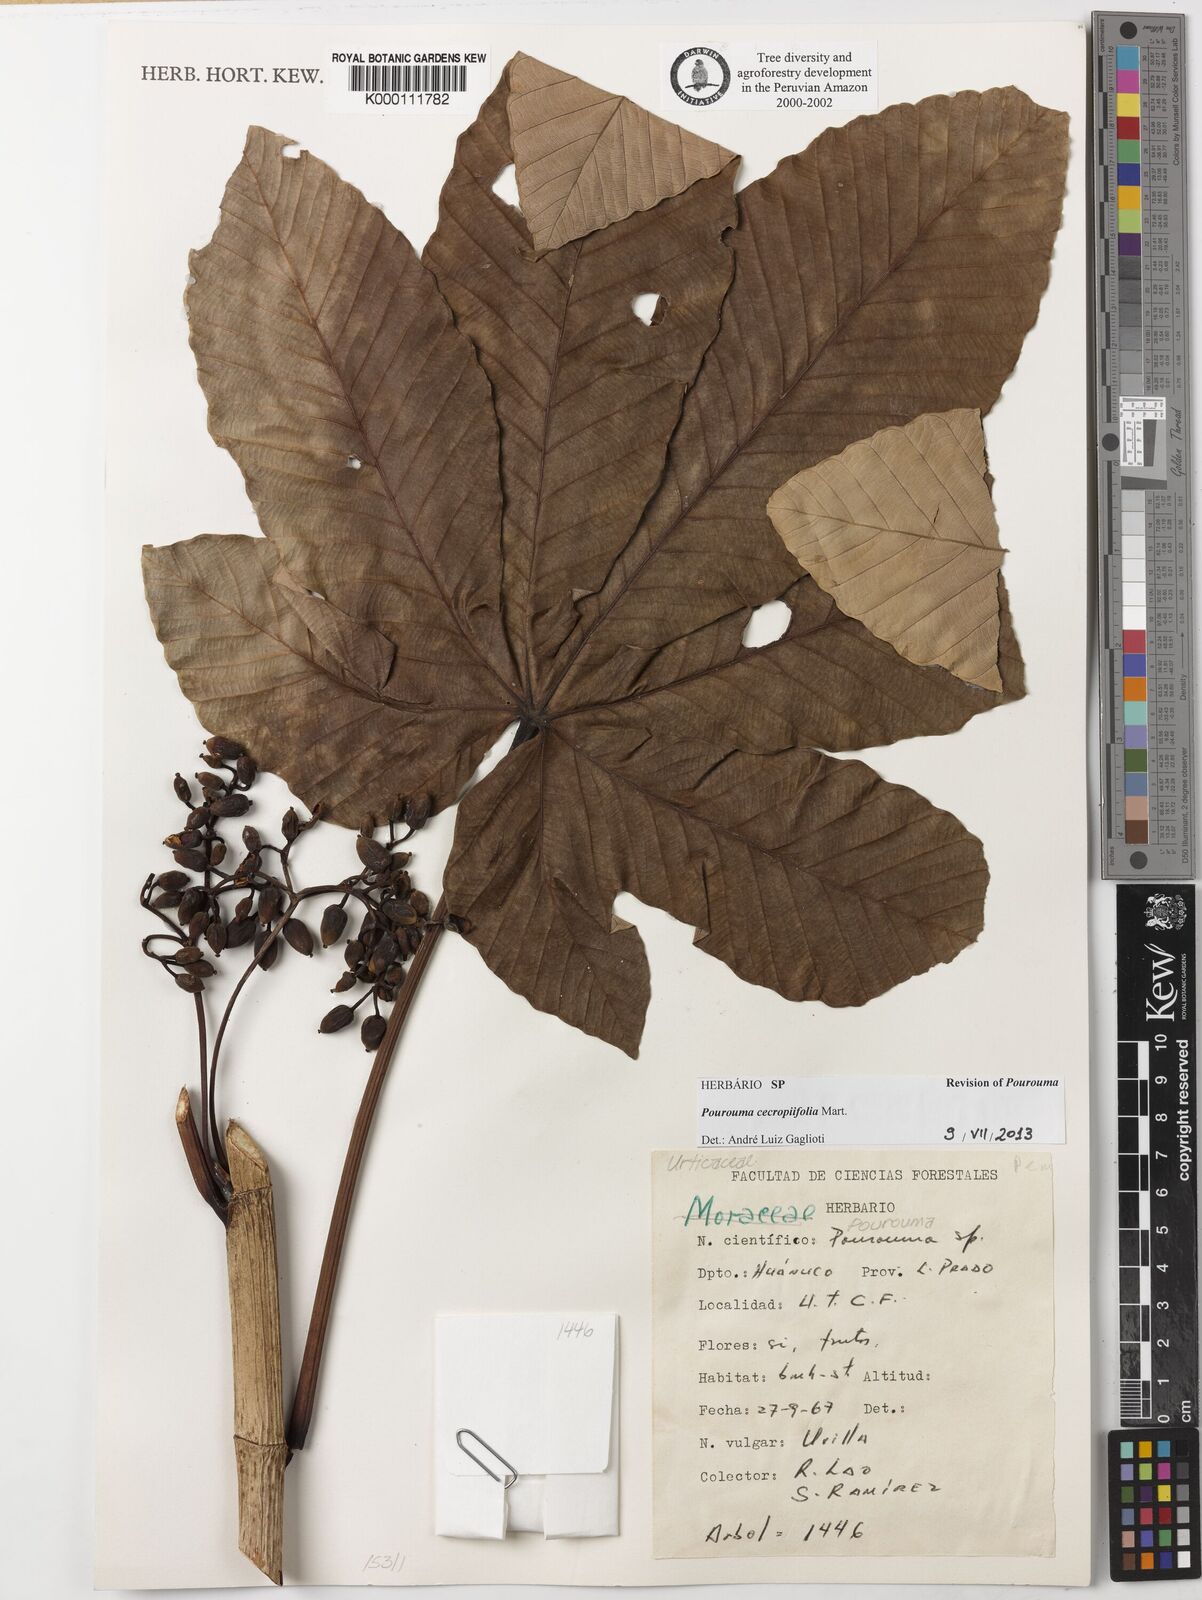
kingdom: Plantae
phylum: Tracheophyta
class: Magnoliopsida
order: Rosales
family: Urticaceae
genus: Pourouma
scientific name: Pourouma cecropiifolia
